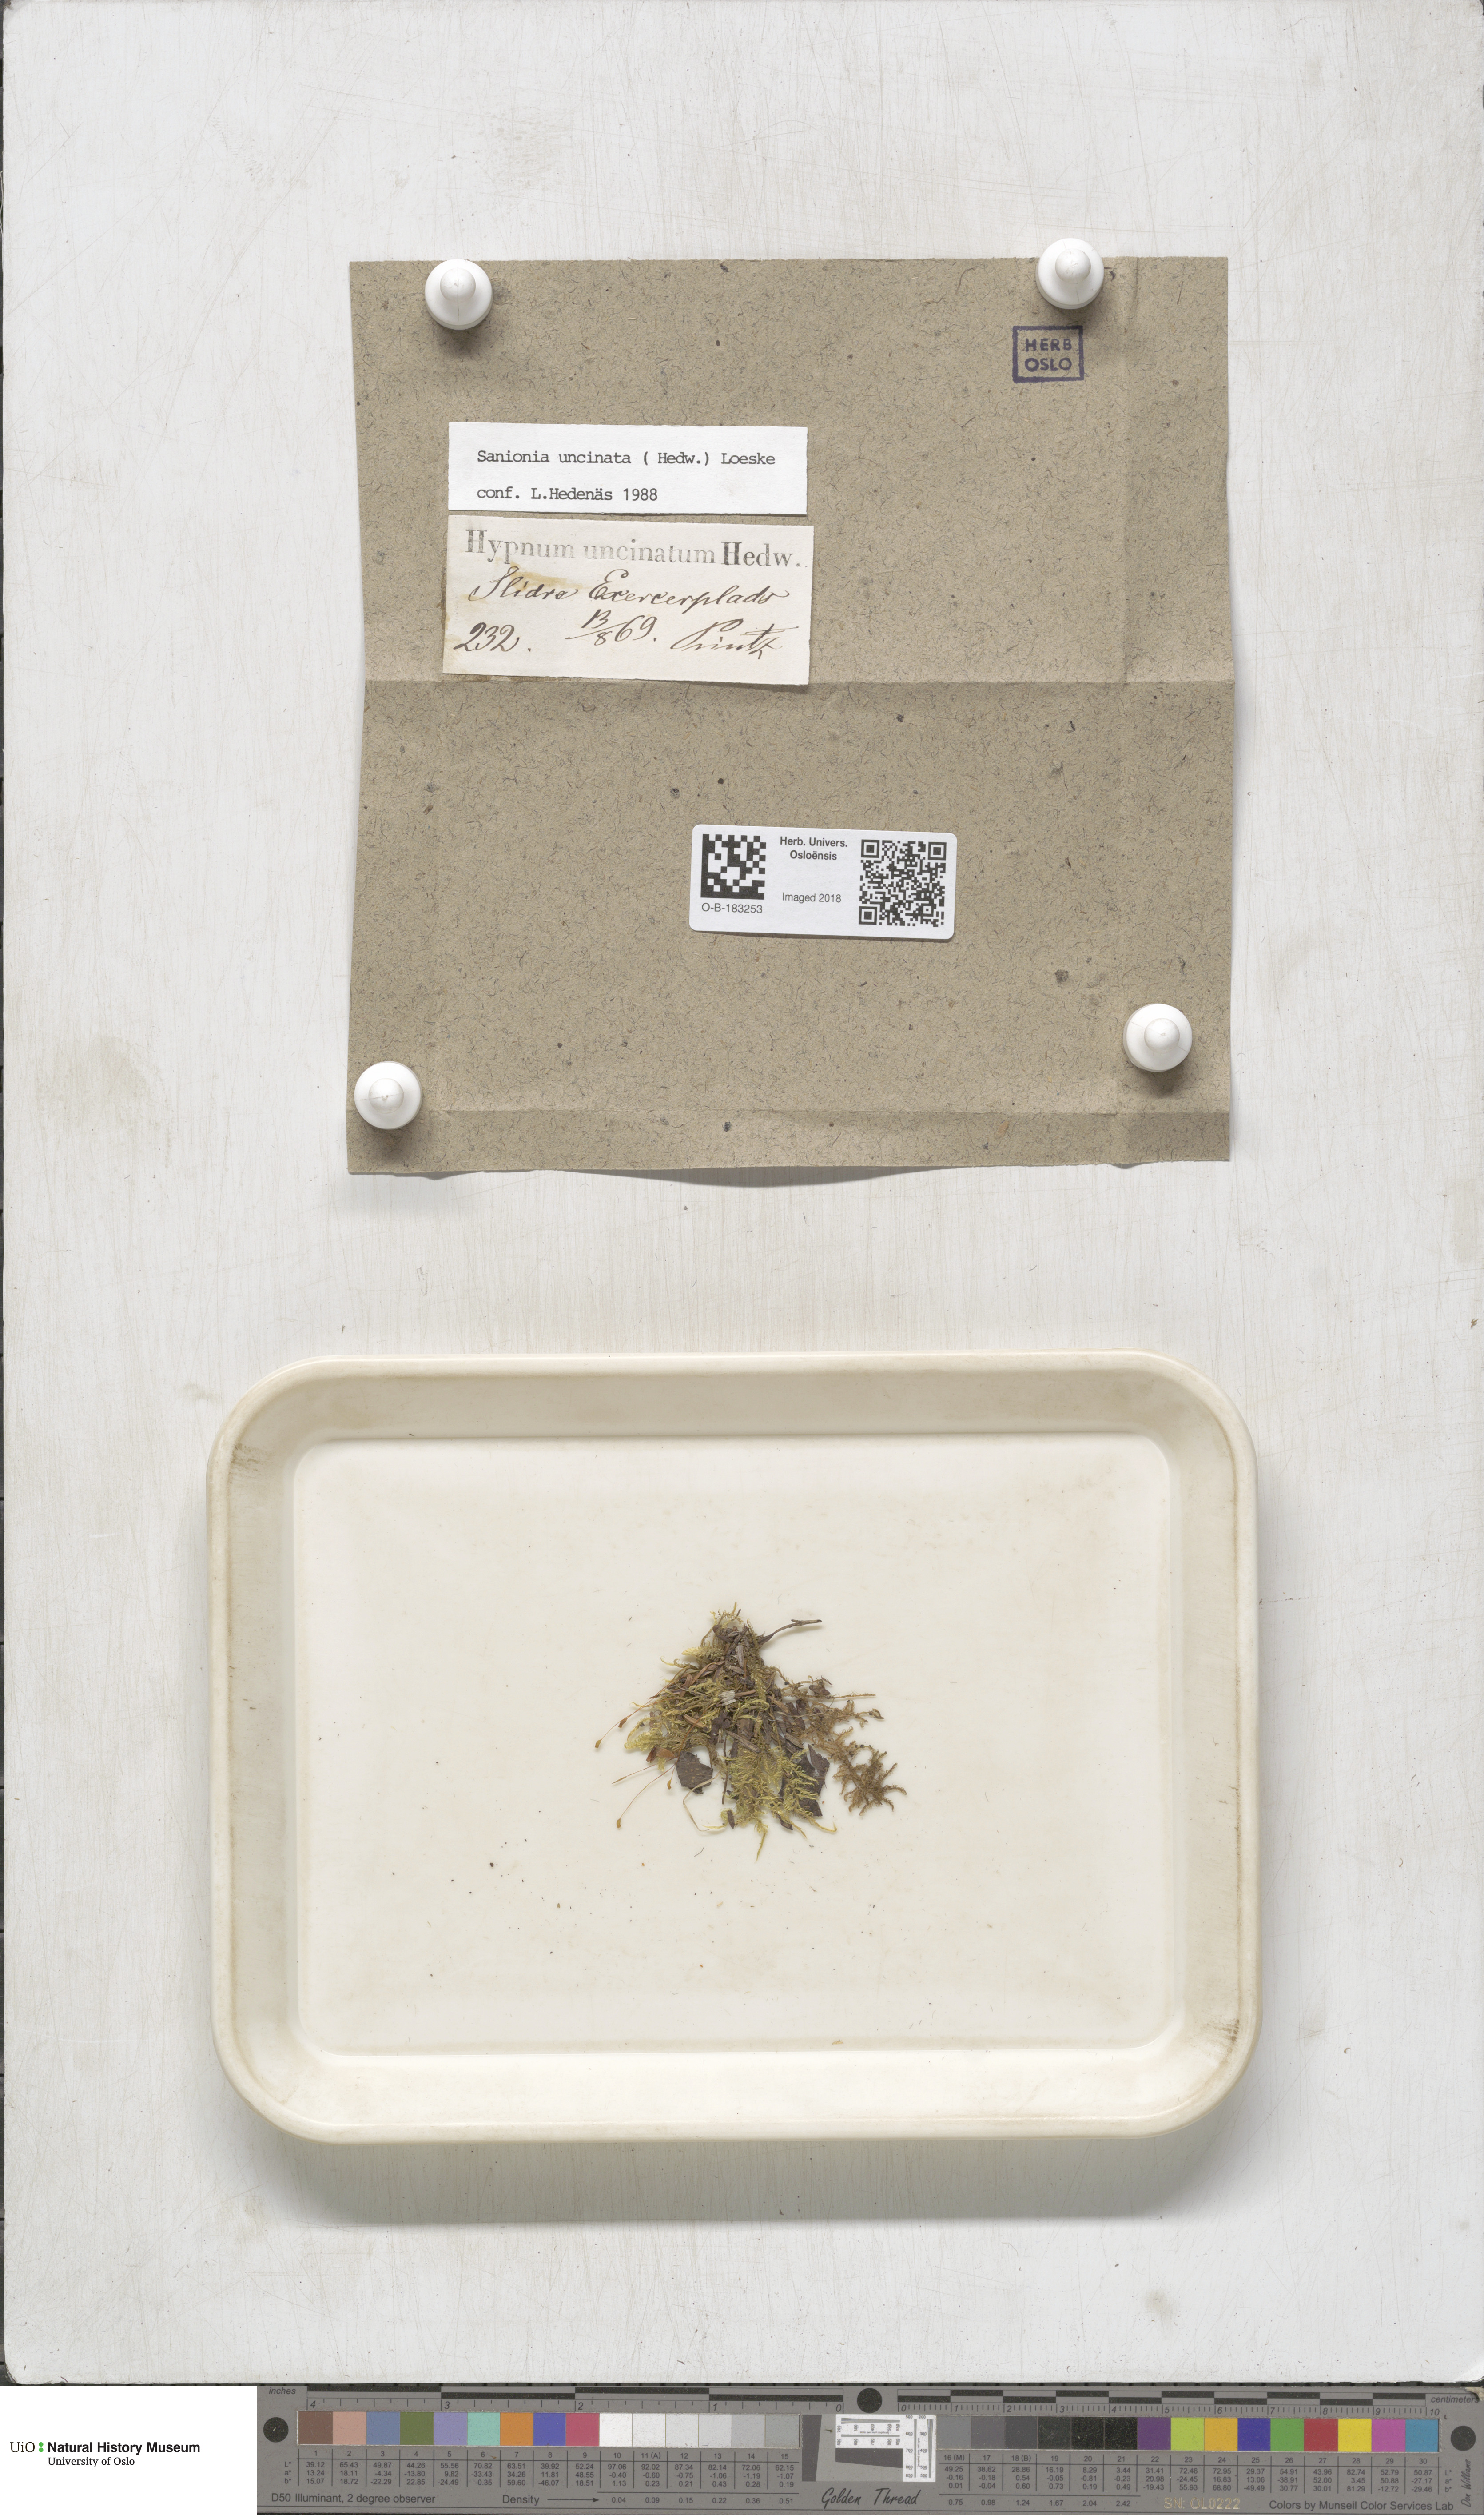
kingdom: Plantae
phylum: Bryophyta
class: Bryopsida
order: Hypnales
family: Scorpidiaceae
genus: Sanionia
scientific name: Sanionia uncinata
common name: Sickle moss
